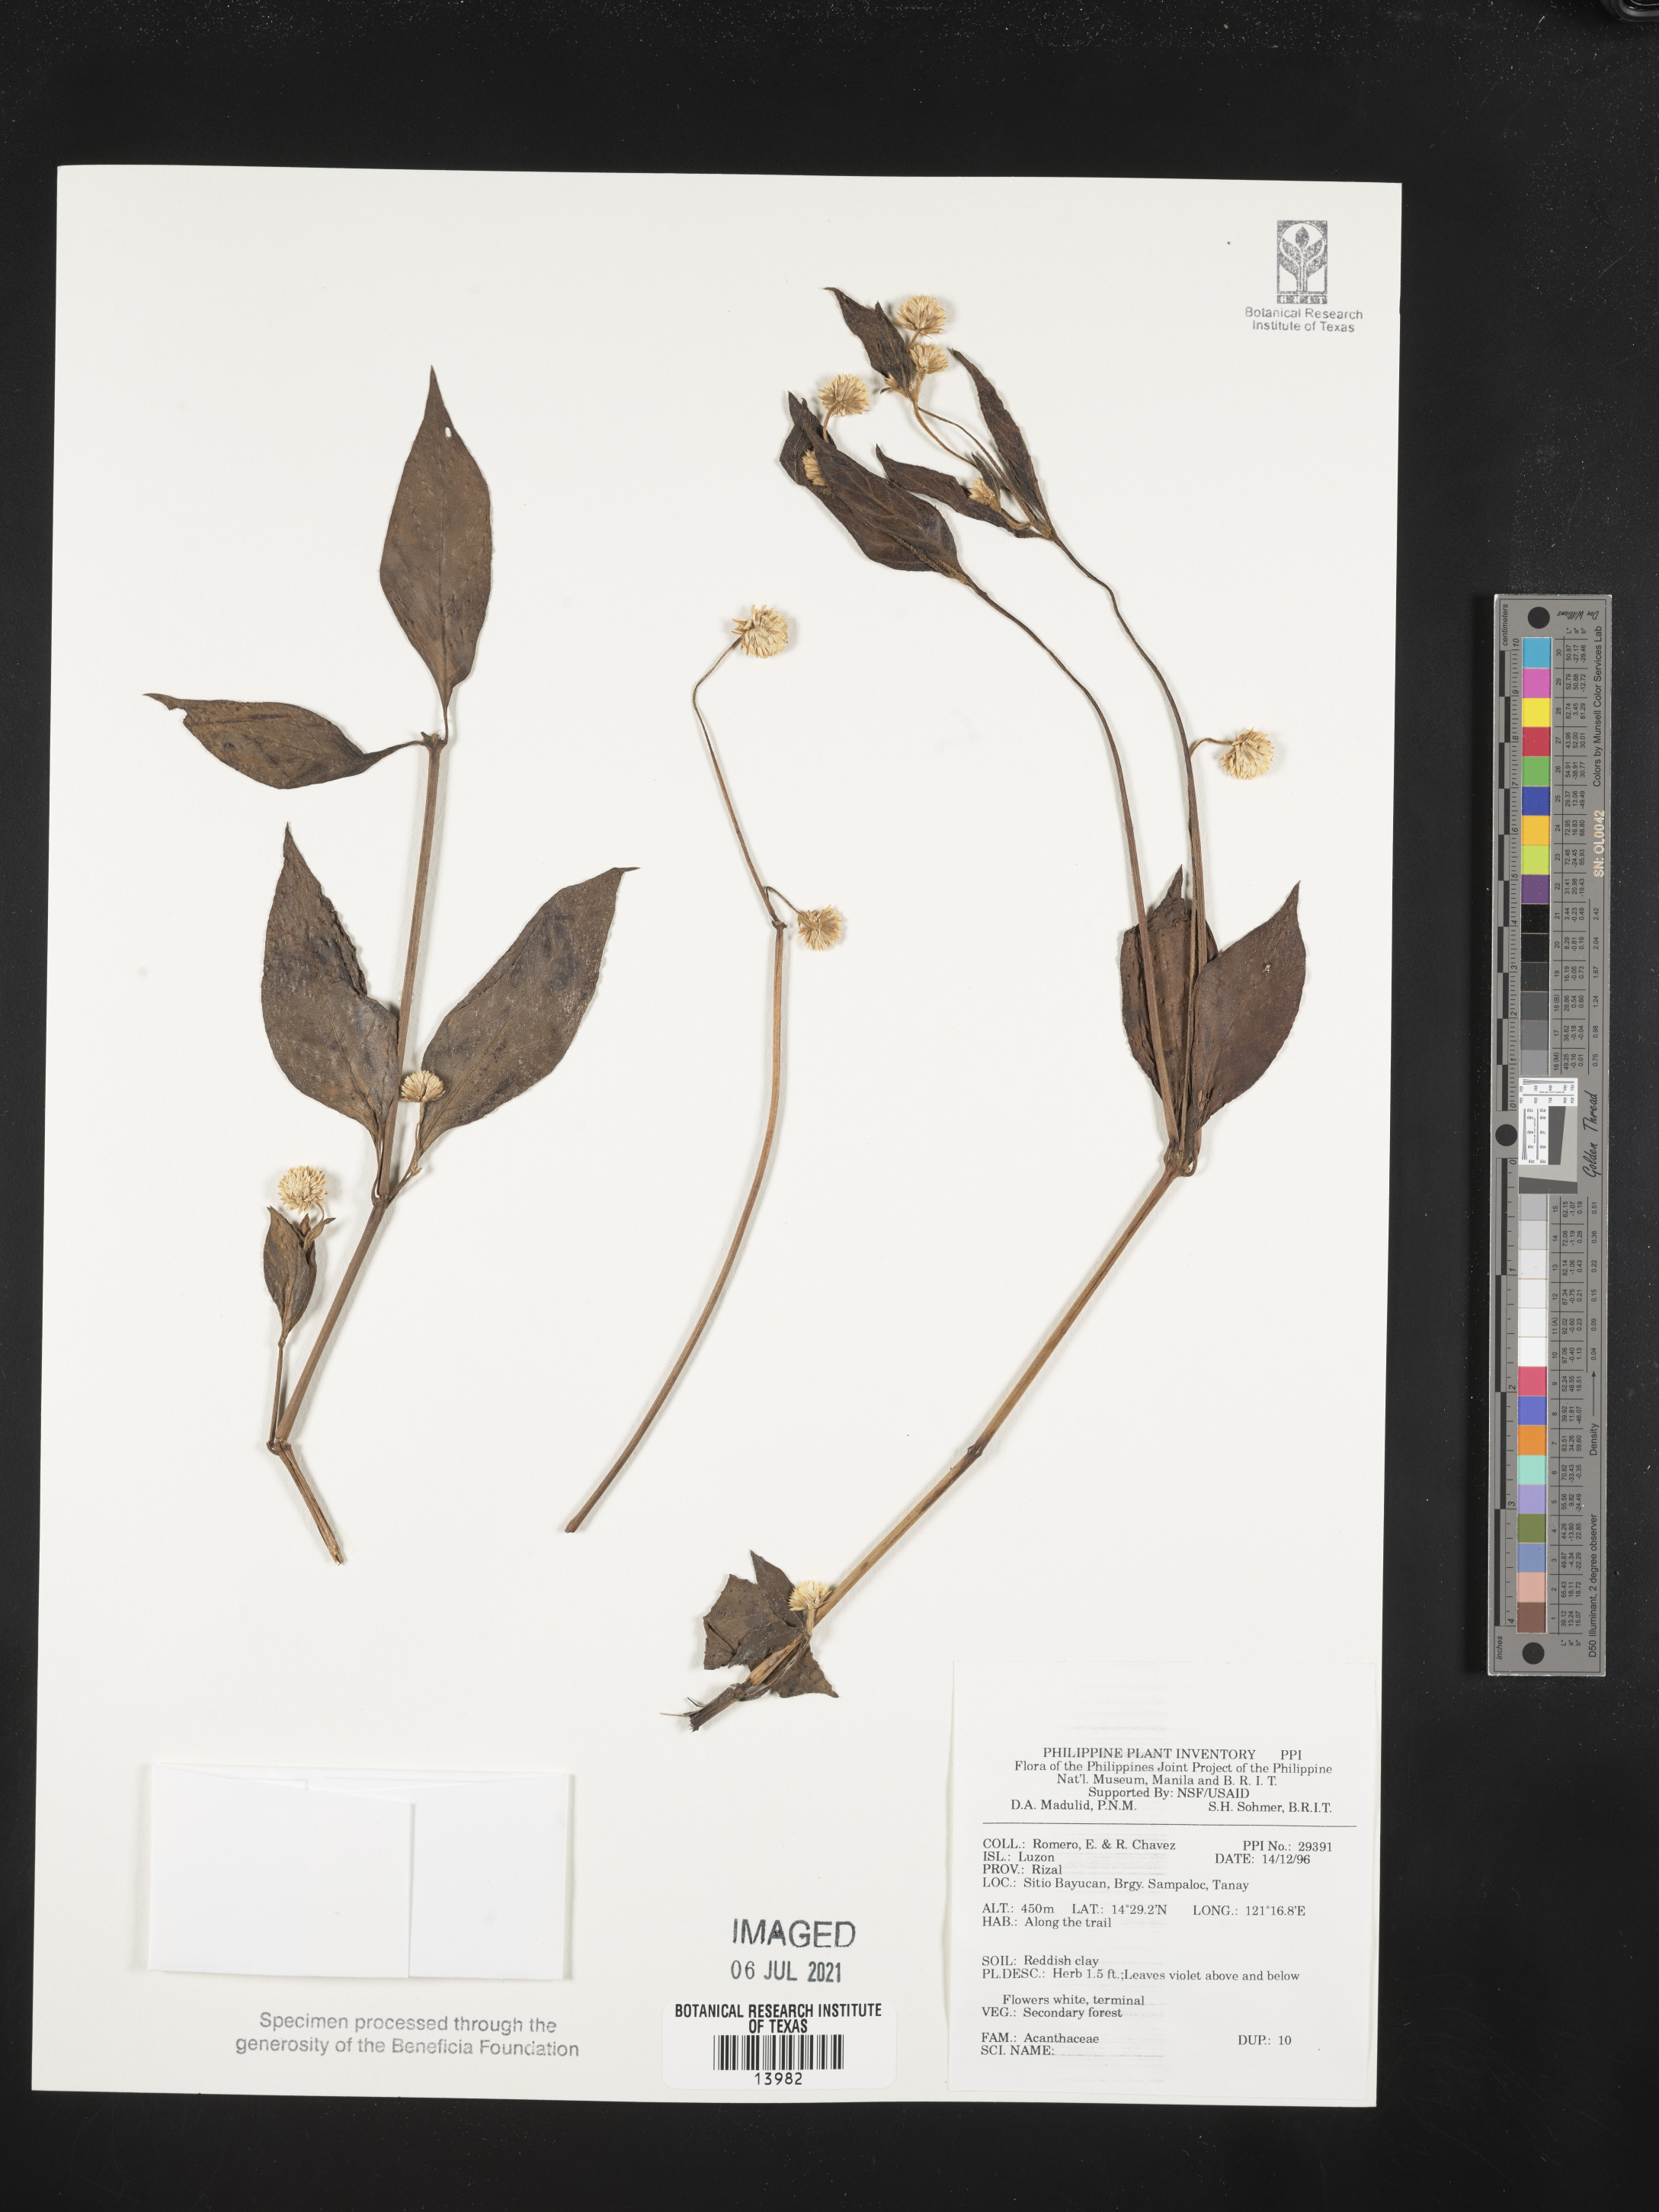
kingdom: Plantae
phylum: Tracheophyta
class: Magnoliopsida
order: Lamiales
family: Acanthaceae
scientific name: Acanthaceae
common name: Acanthaceae
